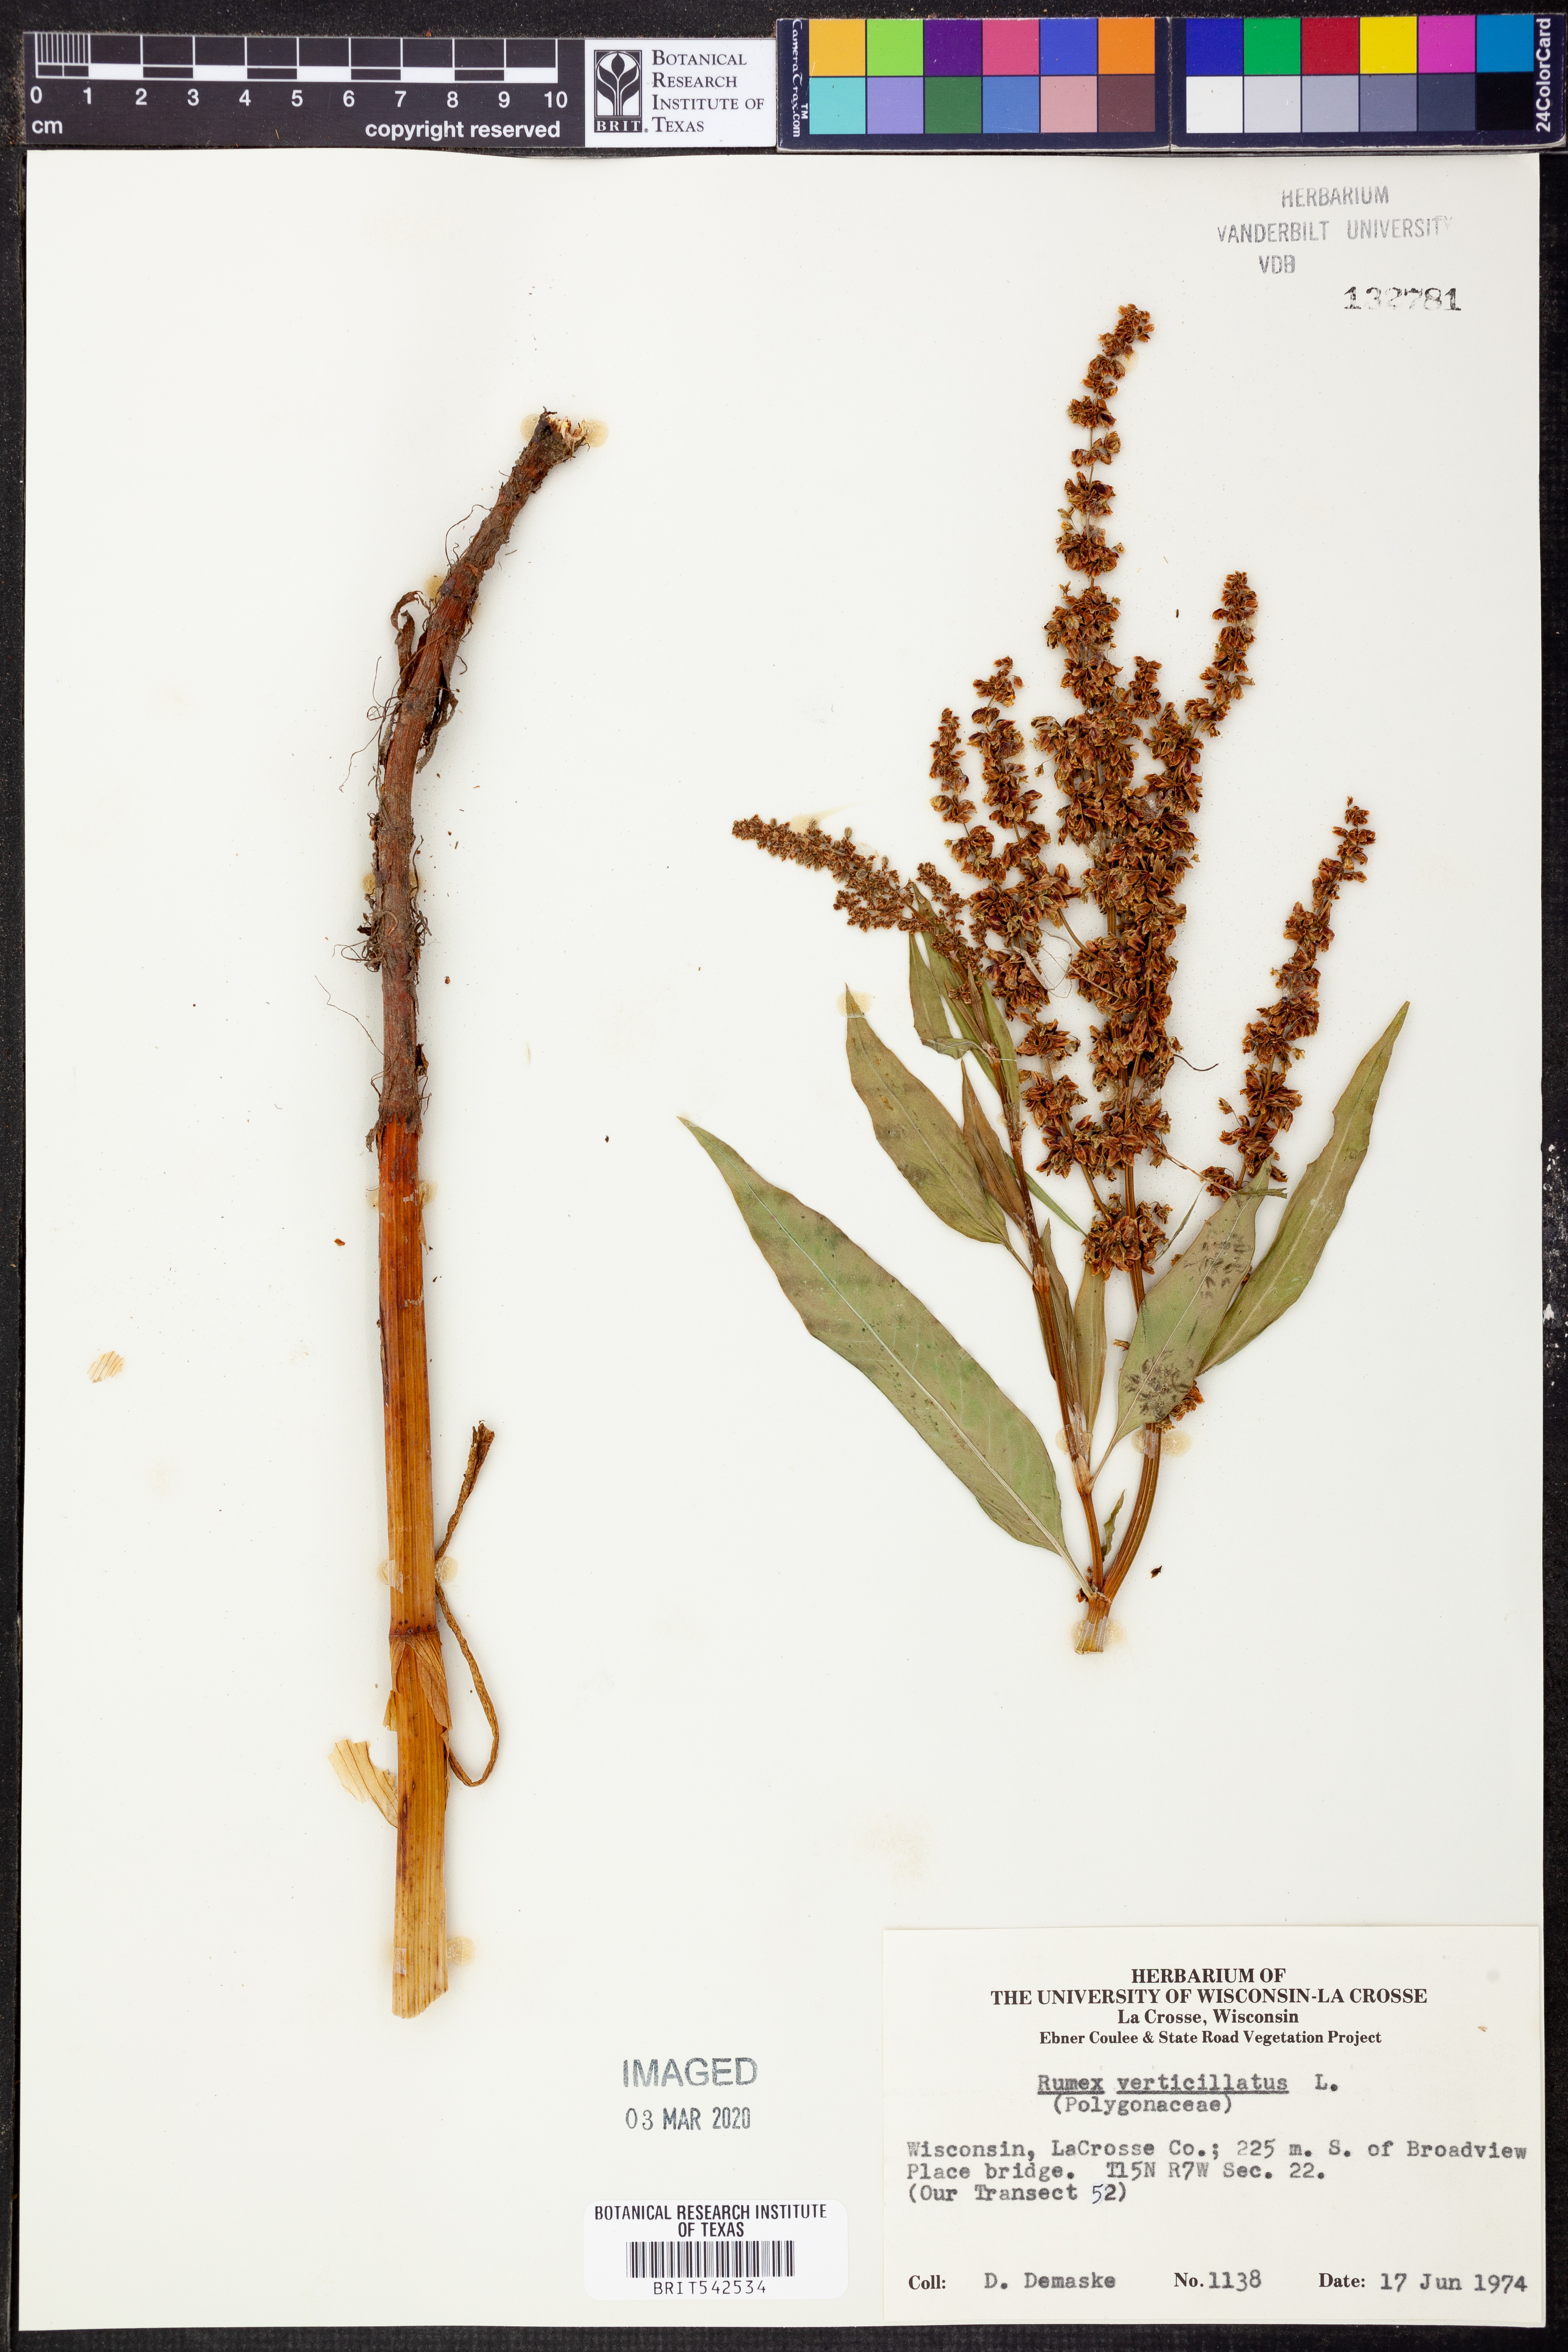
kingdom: Plantae
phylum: Tracheophyta
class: Magnoliopsida
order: Caryophyllales
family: Polygonaceae
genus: Rumex
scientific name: Rumex verticillatus
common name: Swamp dock
